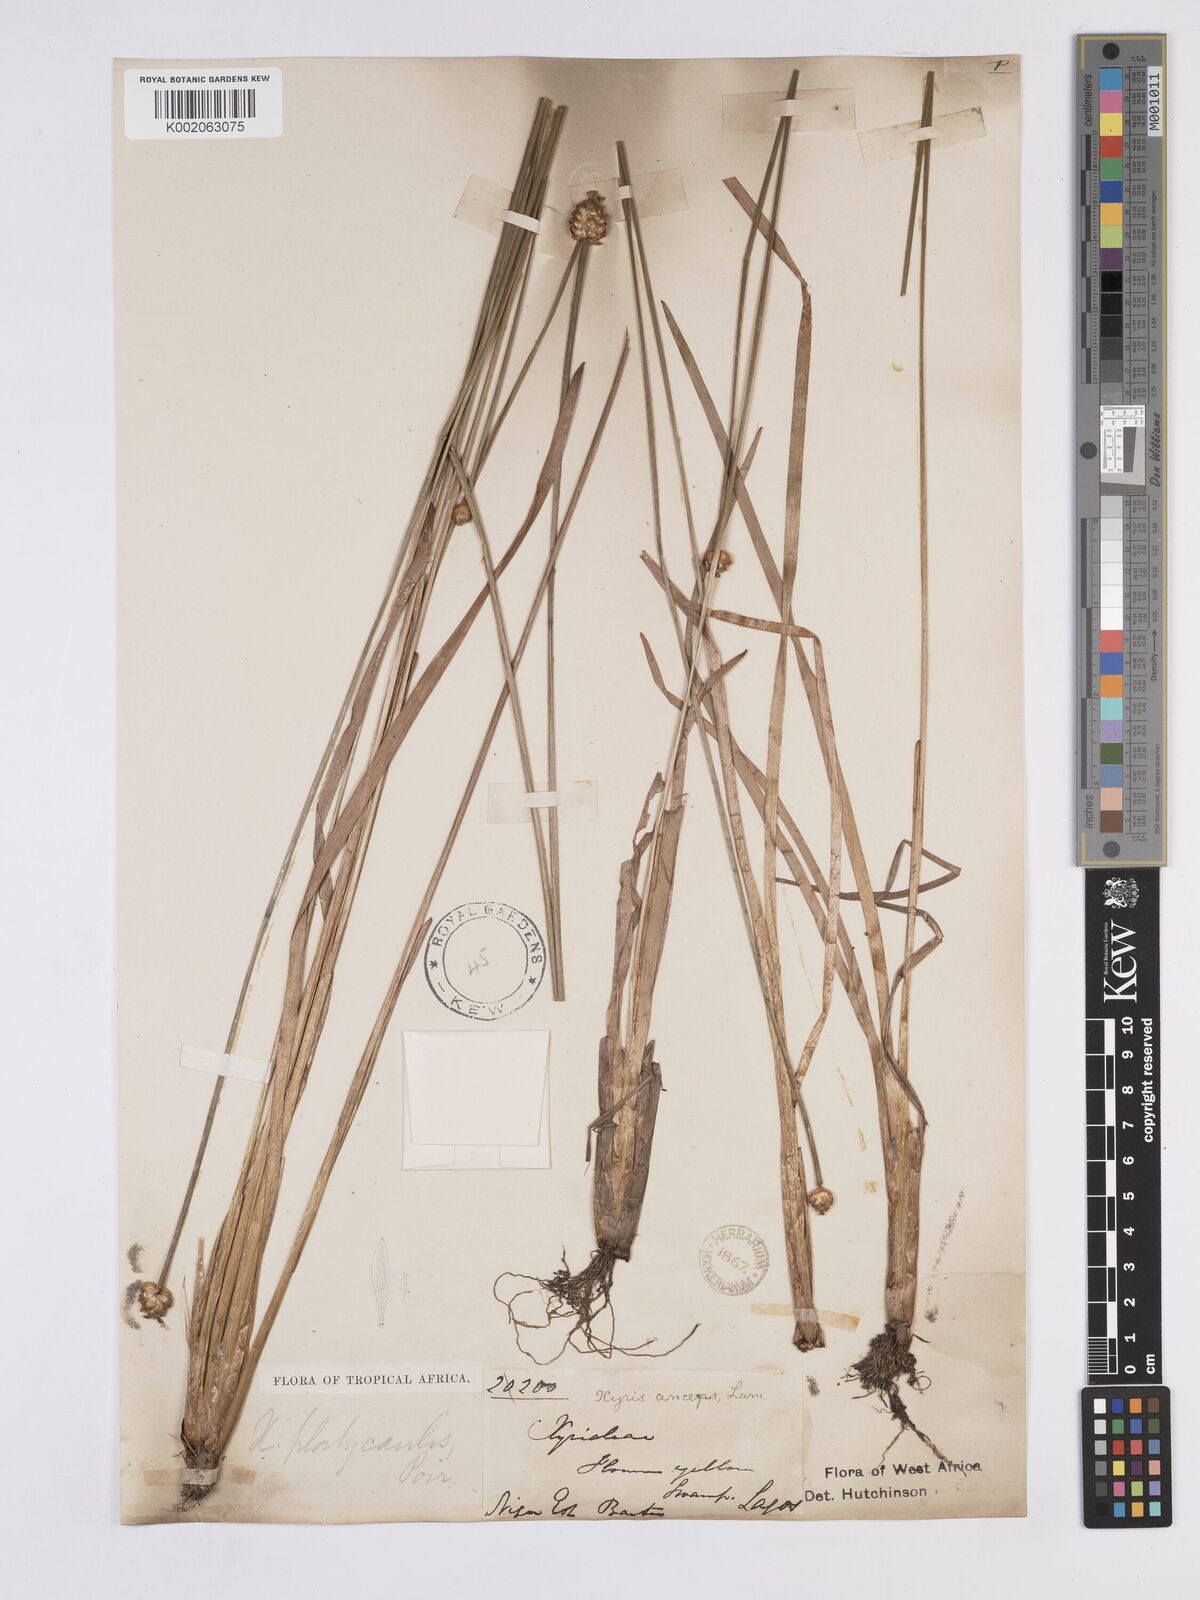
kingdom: Plantae
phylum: Tracheophyta
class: Liliopsida
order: Poales
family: Xyridaceae
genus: Xyris
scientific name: Xyris anceps
